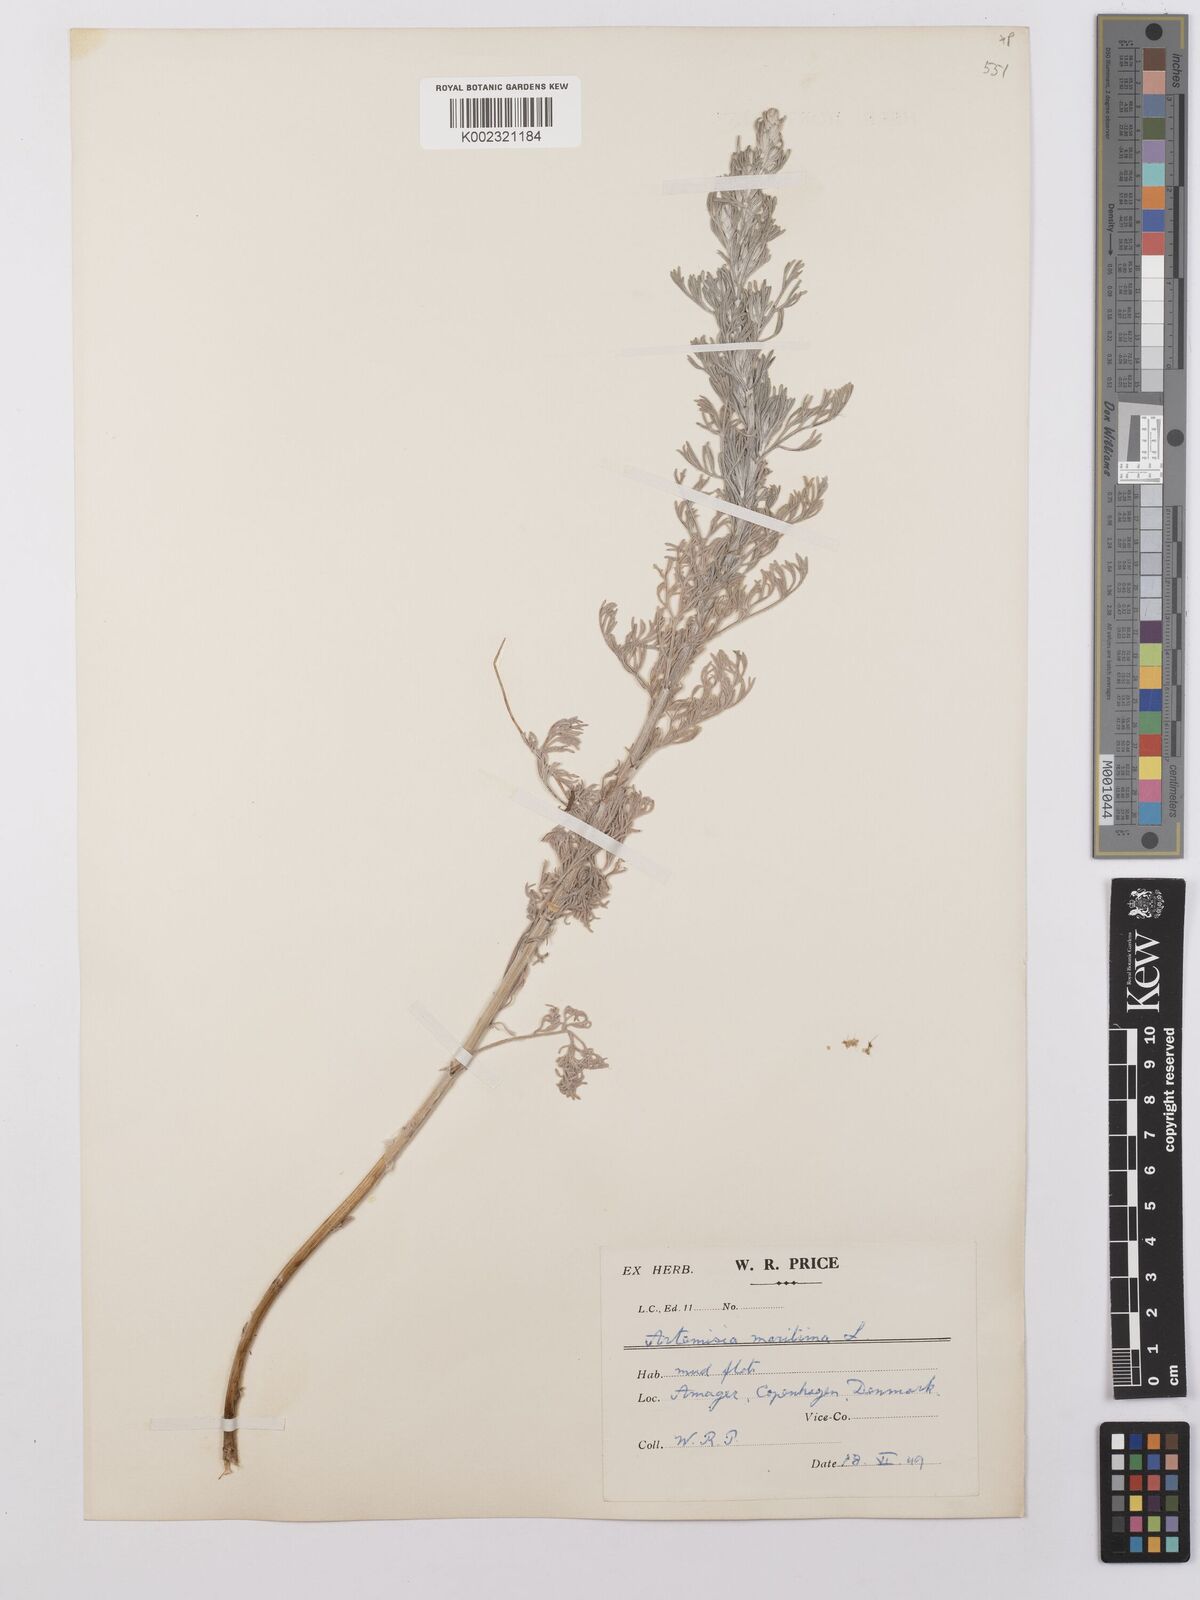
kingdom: Plantae
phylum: Tracheophyta
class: Magnoliopsida
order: Asterales
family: Asteraceae
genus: Artemisia
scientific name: Artemisia maritima
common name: Wormseed
